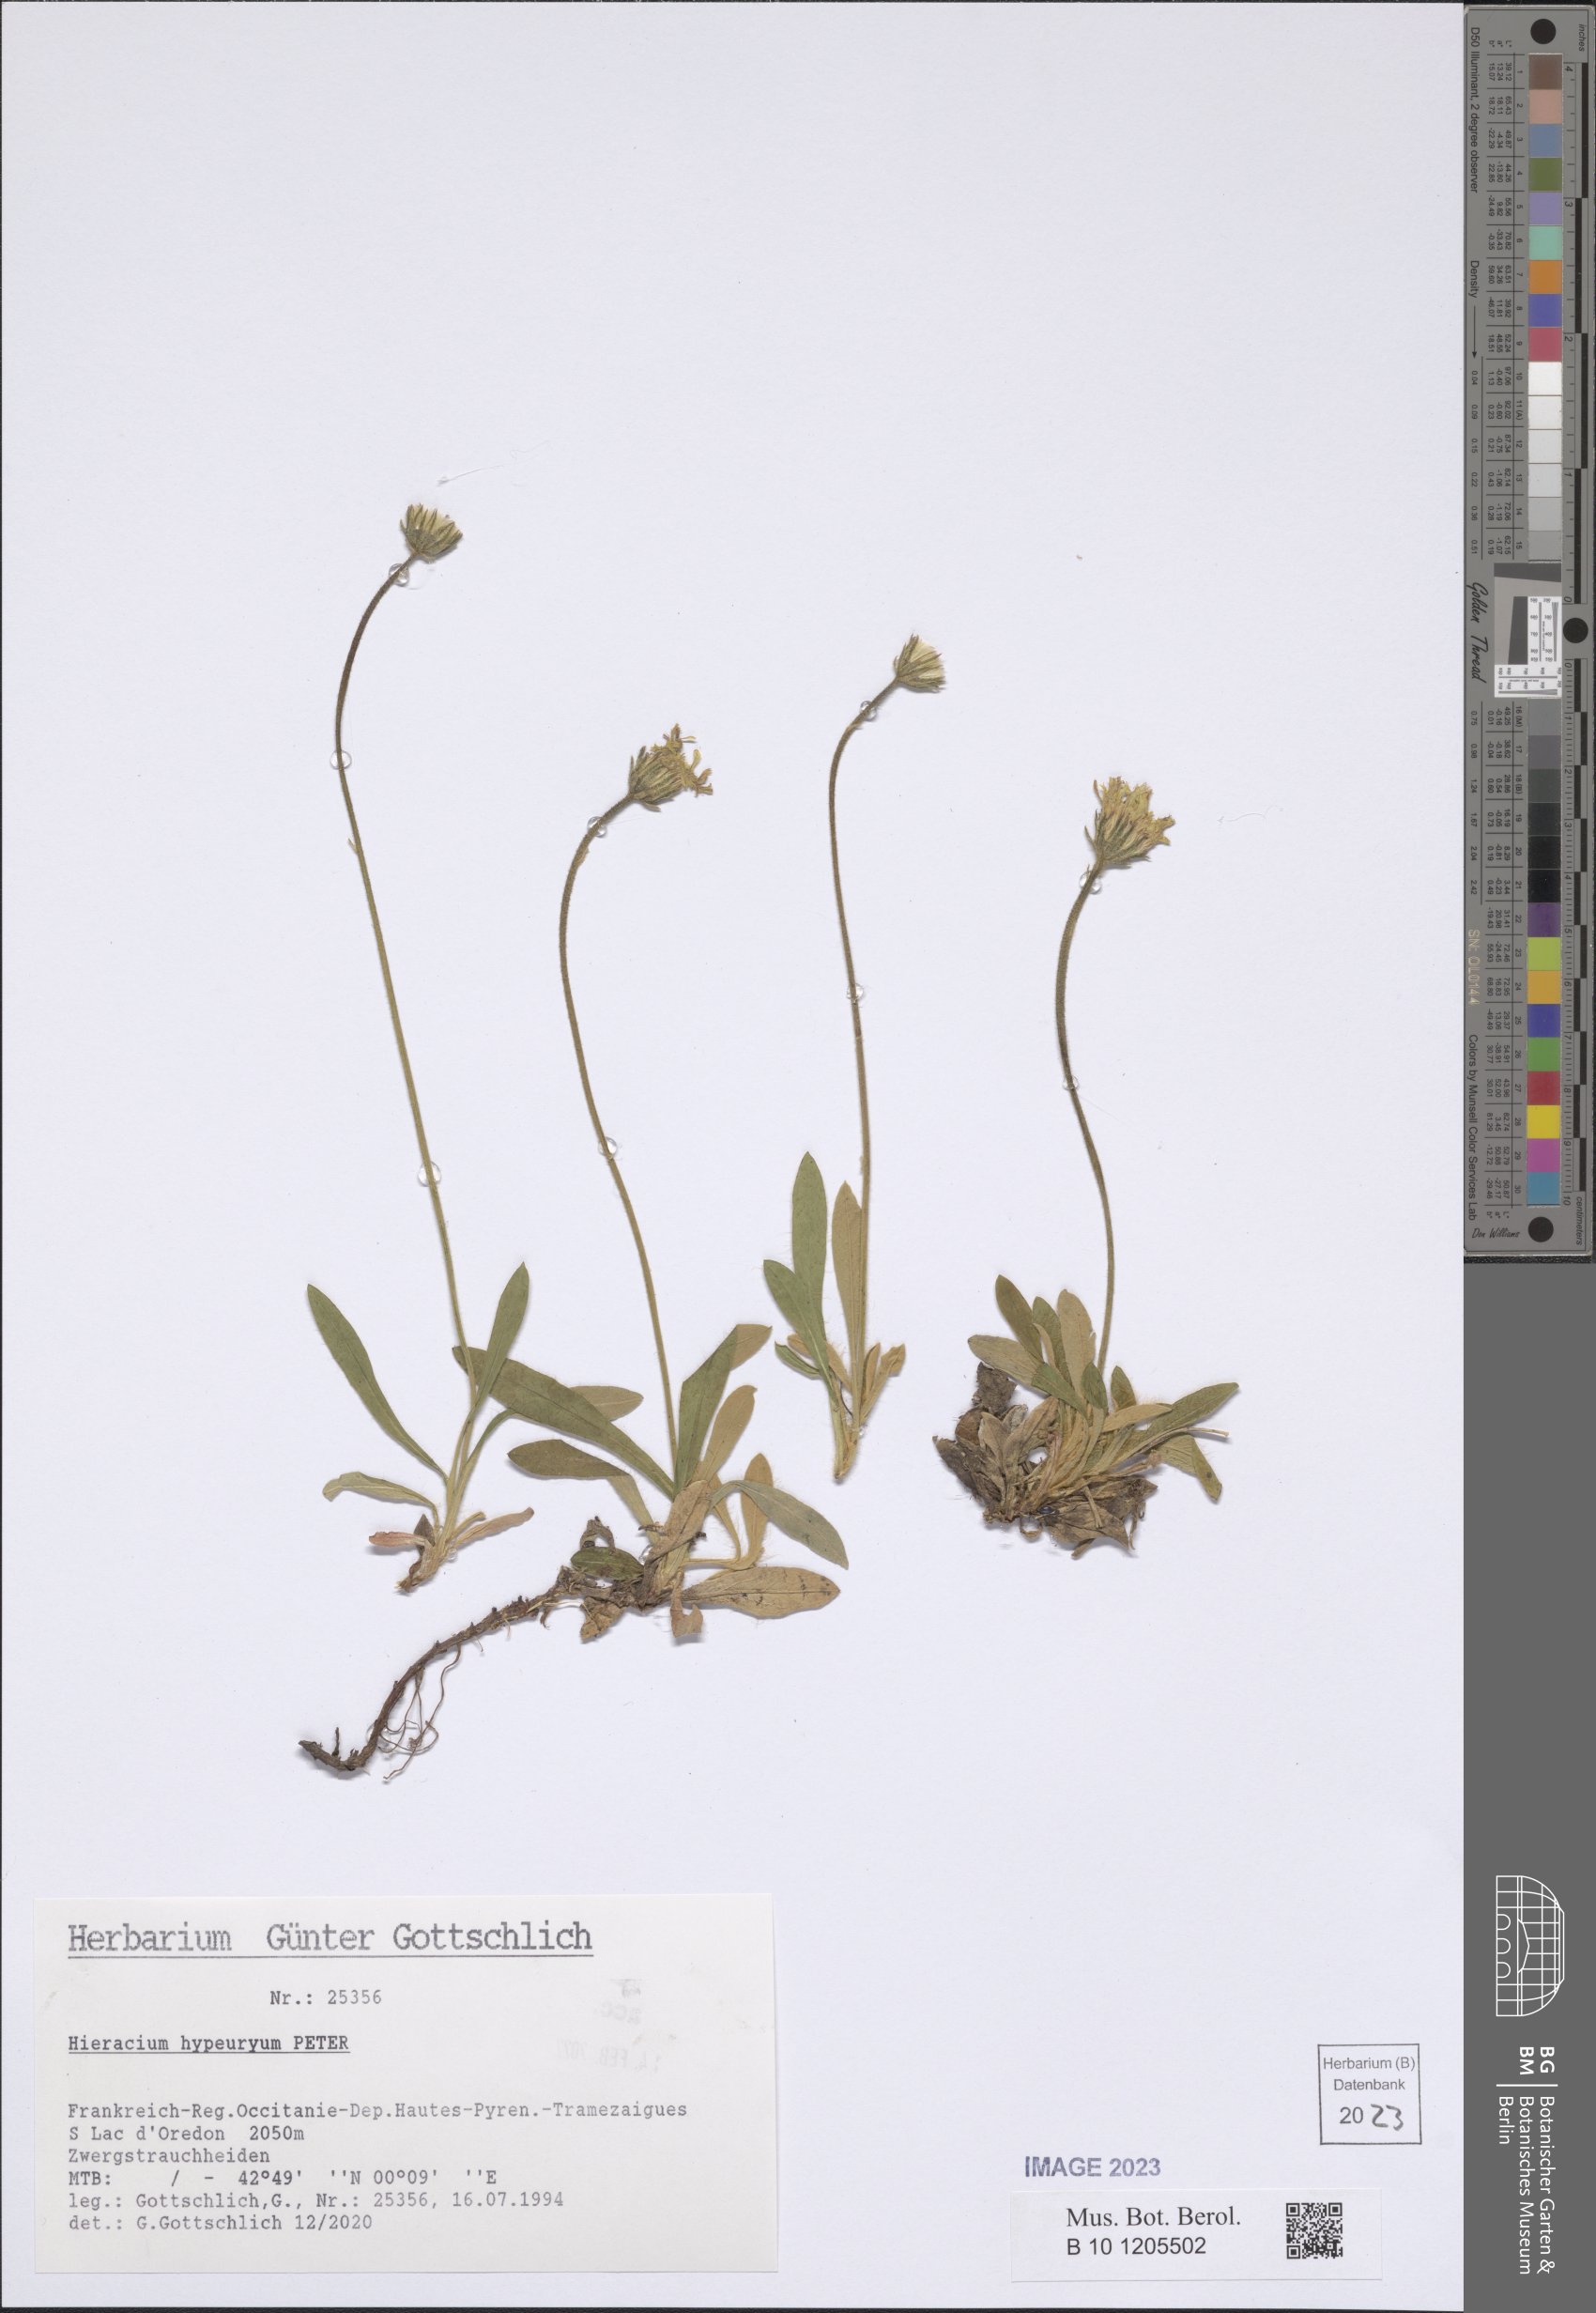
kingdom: Plantae
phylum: Tracheophyta
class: Magnoliopsida
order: Asterales
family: Asteraceae
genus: Pilosella
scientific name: Pilosella hypeurya
